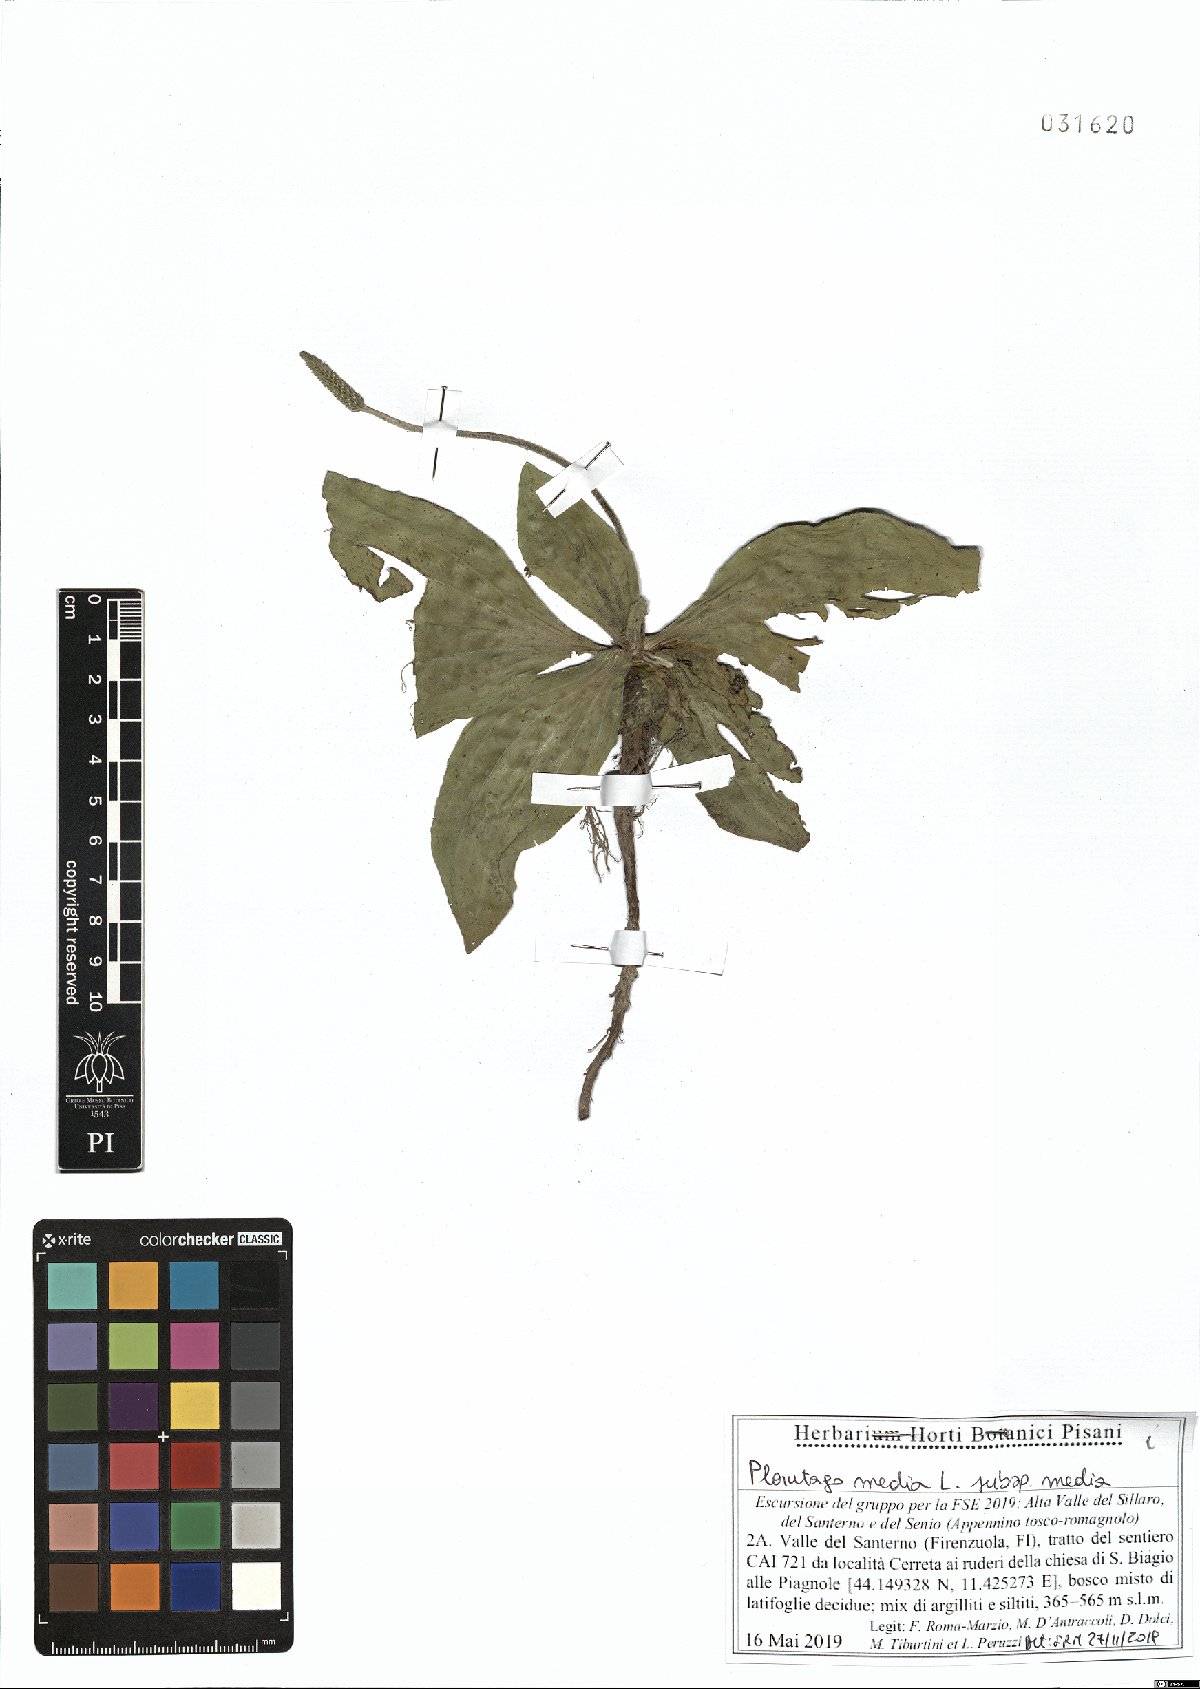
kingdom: Plantae
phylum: Tracheophyta
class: Magnoliopsida
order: Lamiales
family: Plantaginaceae
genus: Plantago
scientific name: Plantago media
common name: Hoary plantain
